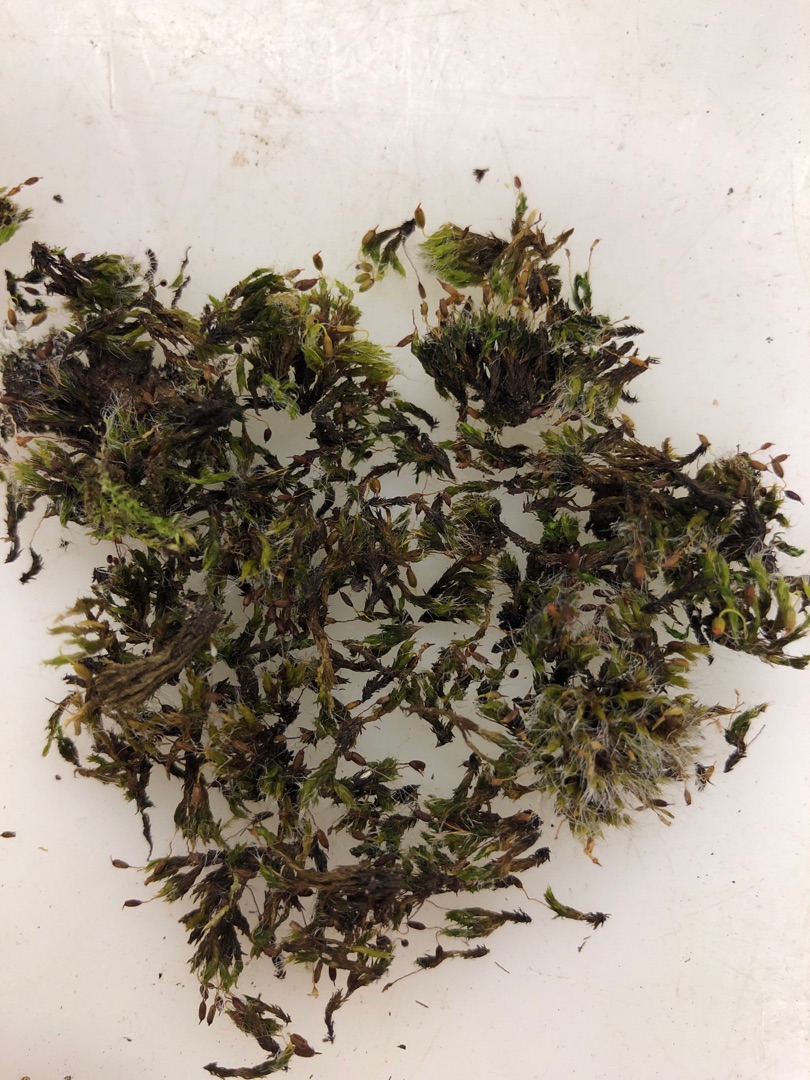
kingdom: Plantae
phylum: Bryophyta
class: Bryopsida
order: Grimmiales
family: Grimmiaceae
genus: Grimmia
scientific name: Grimmia pulvinata
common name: Pude-gråmos
